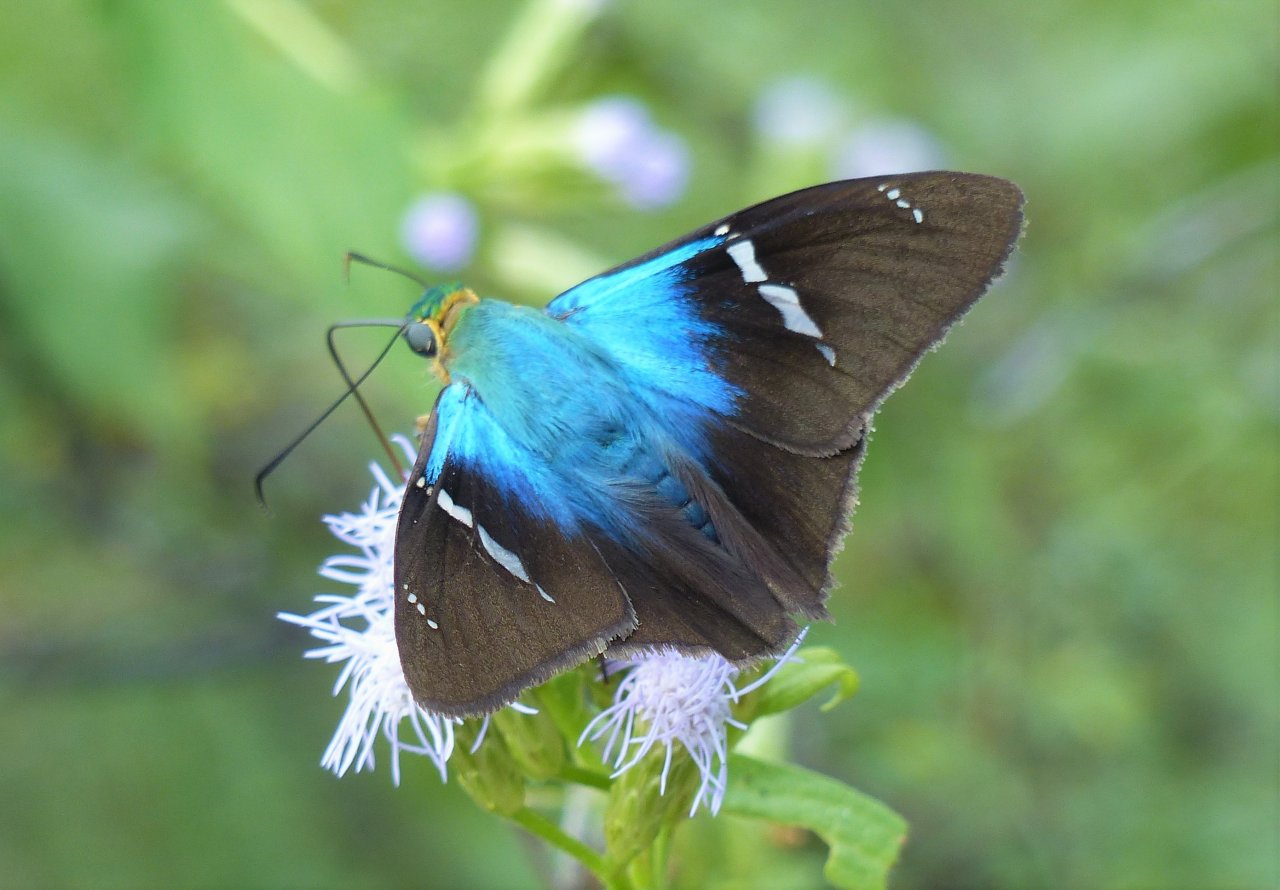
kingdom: Animalia
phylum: Arthropoda
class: Insecta
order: Lepidoptera
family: Hesperiidae
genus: Astraptes
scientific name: Astraptes fulgerator
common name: Two-barred Flasher
